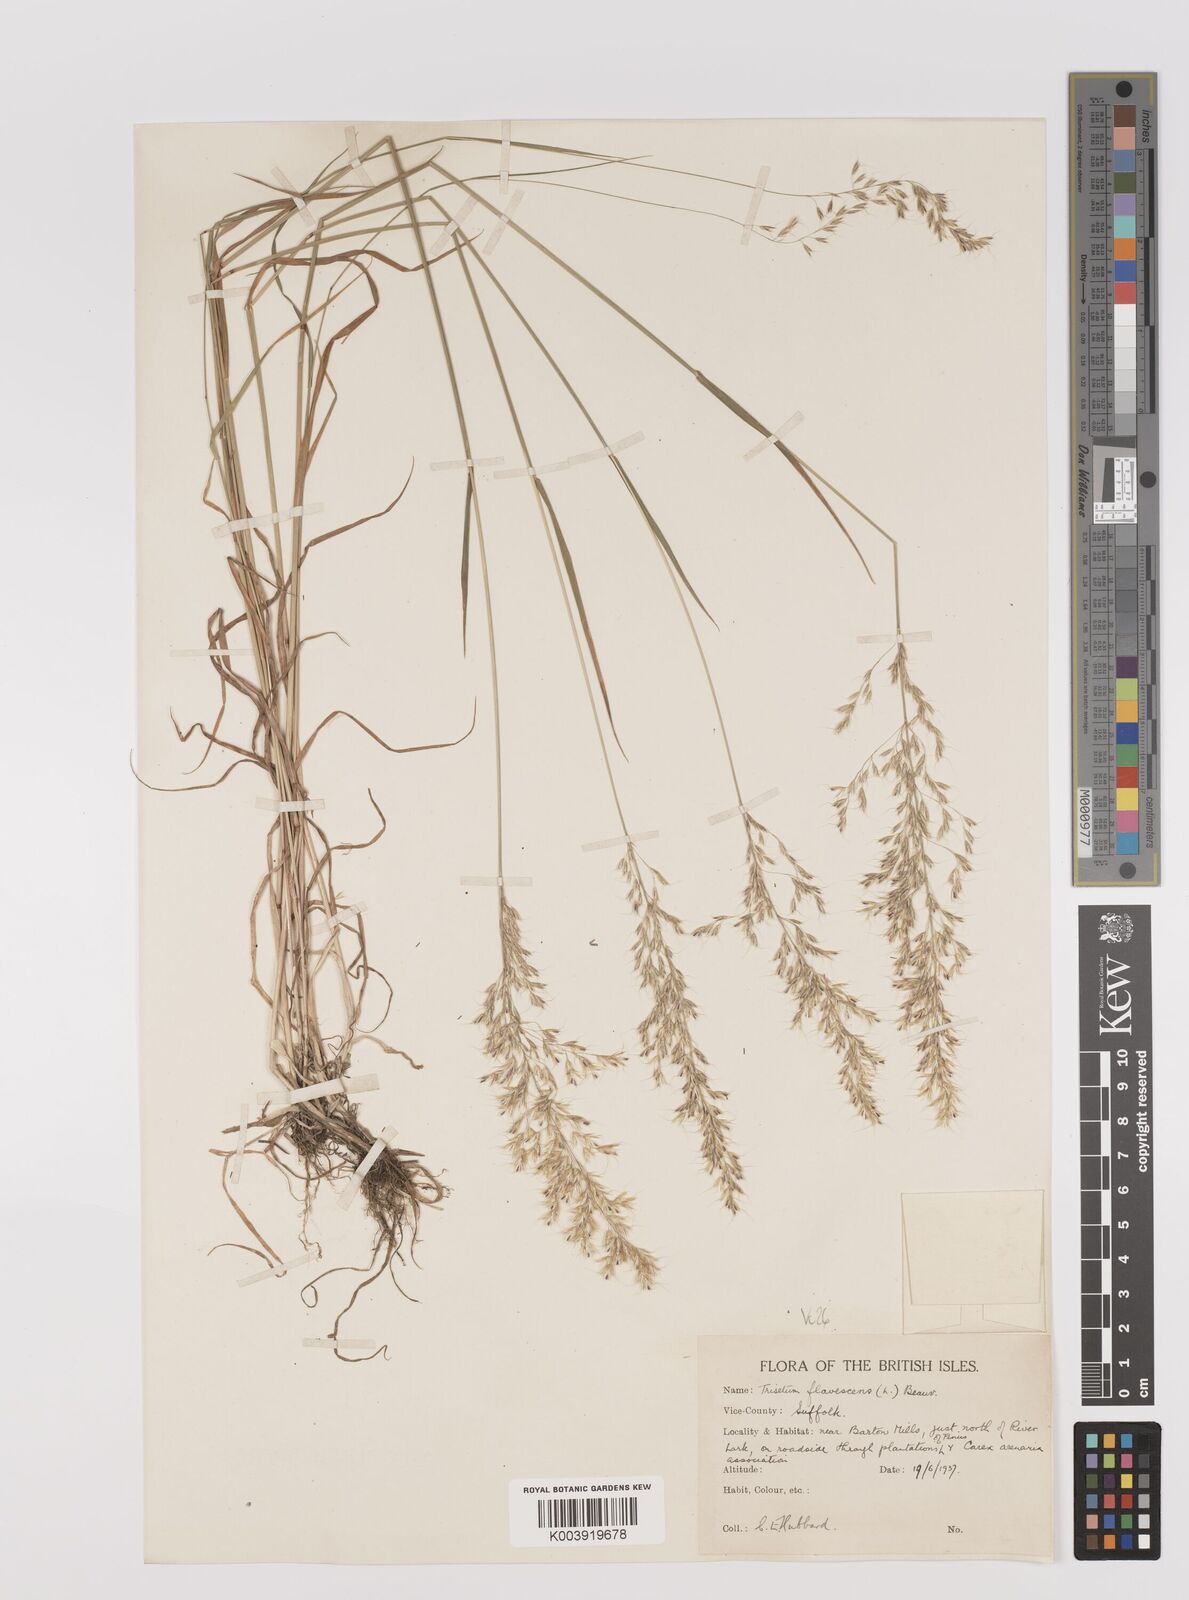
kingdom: Plantae
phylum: Tracheophyta
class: Liliopsida
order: Poales
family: Poaceae
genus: Trisetum
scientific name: Trisetum flavescens
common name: Yellow oat-grass
